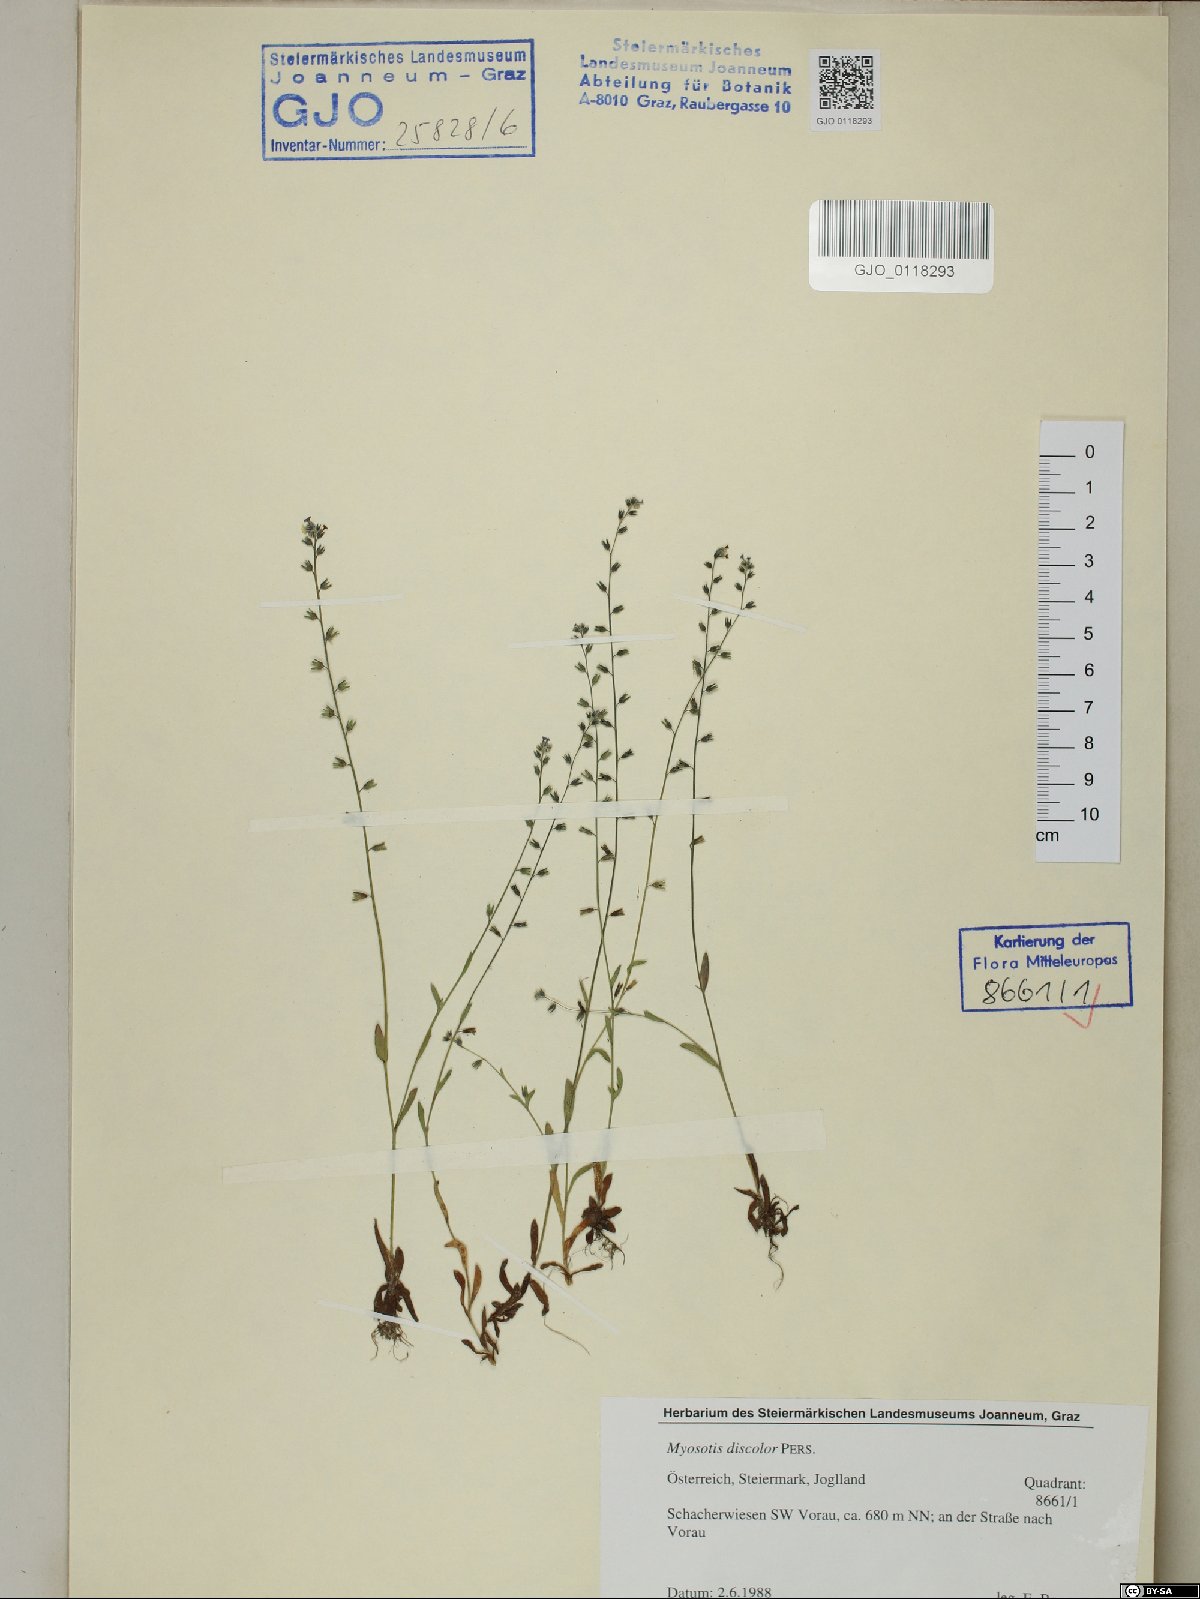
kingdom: Plantae
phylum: Tracheophyta
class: Magnoliopsida
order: Boraginales
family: Boraginaceae
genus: Myosotis
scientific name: Myosotis discolor
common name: Changing forget-me-not
